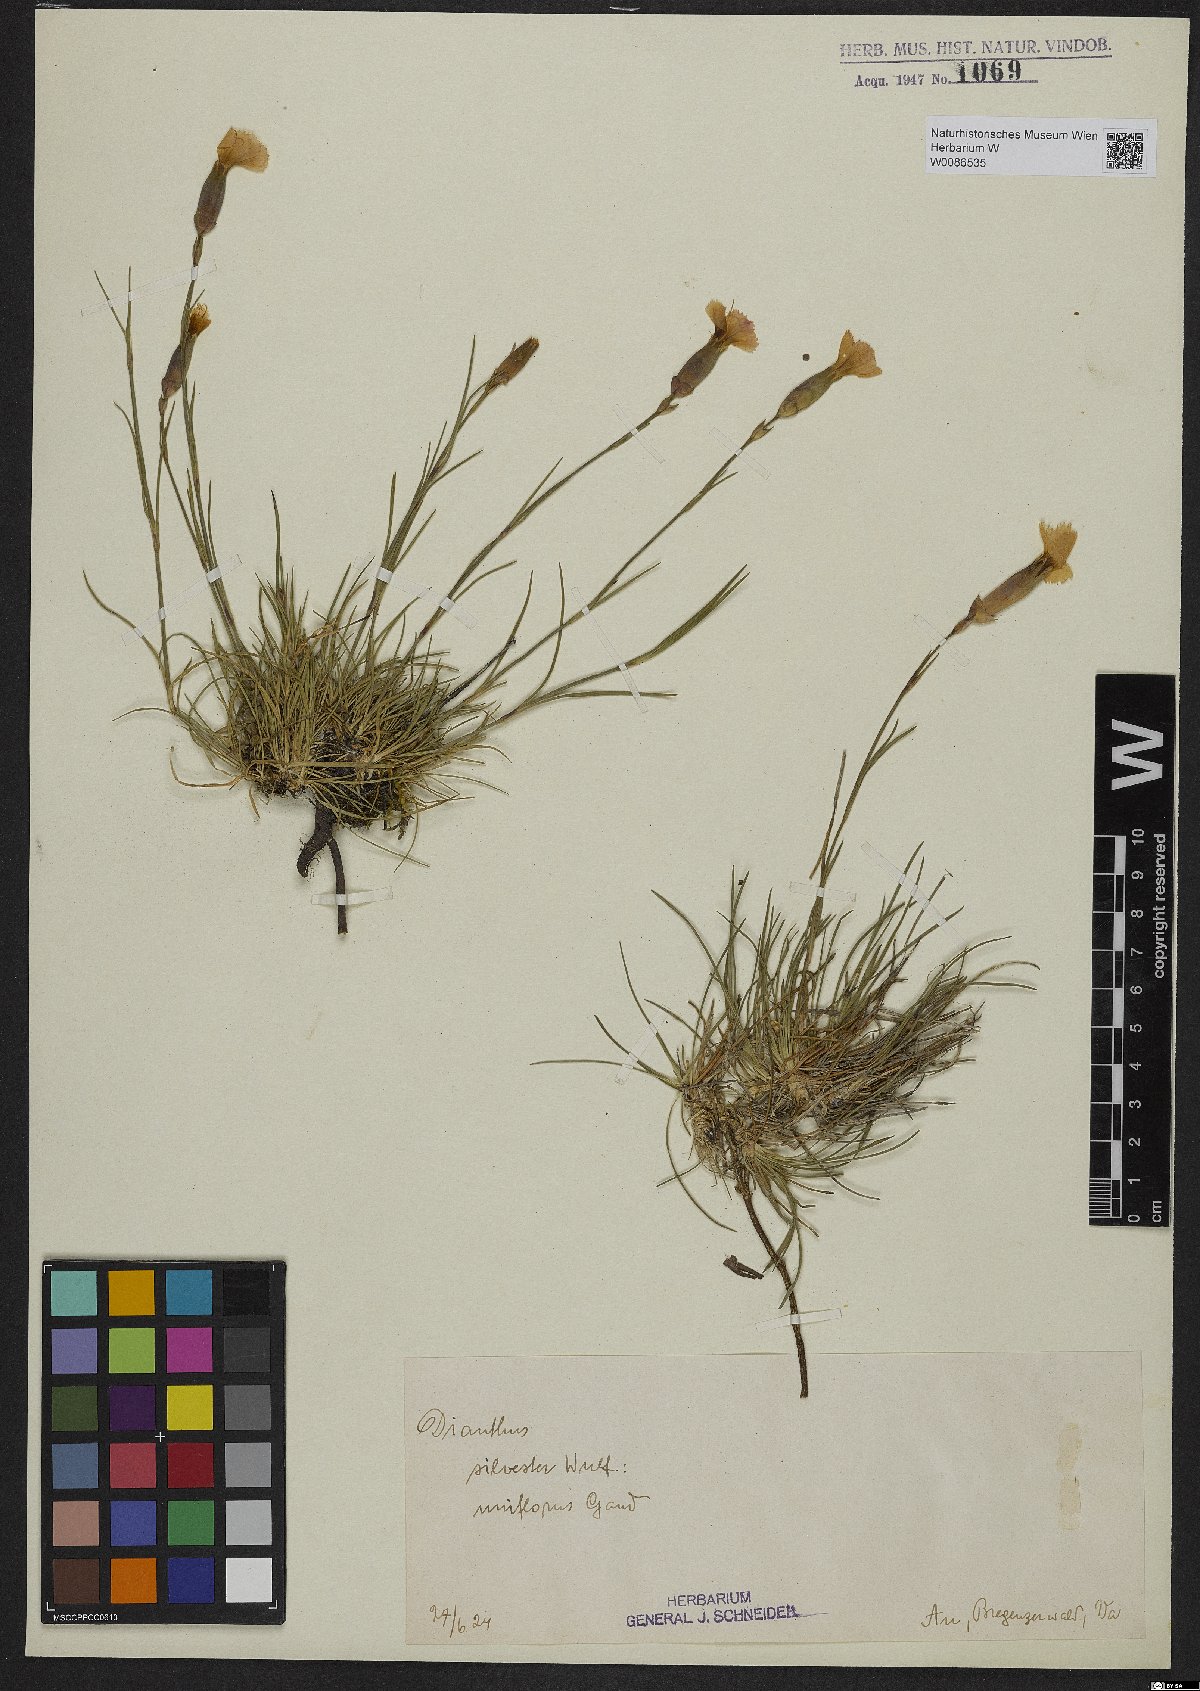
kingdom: Plantae
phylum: Tracheophyta
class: Magnoliopsida
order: Caryophyllales
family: Caryophyllaceae
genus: Dianthus
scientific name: Dianthus sylvestris
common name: Wood pink
